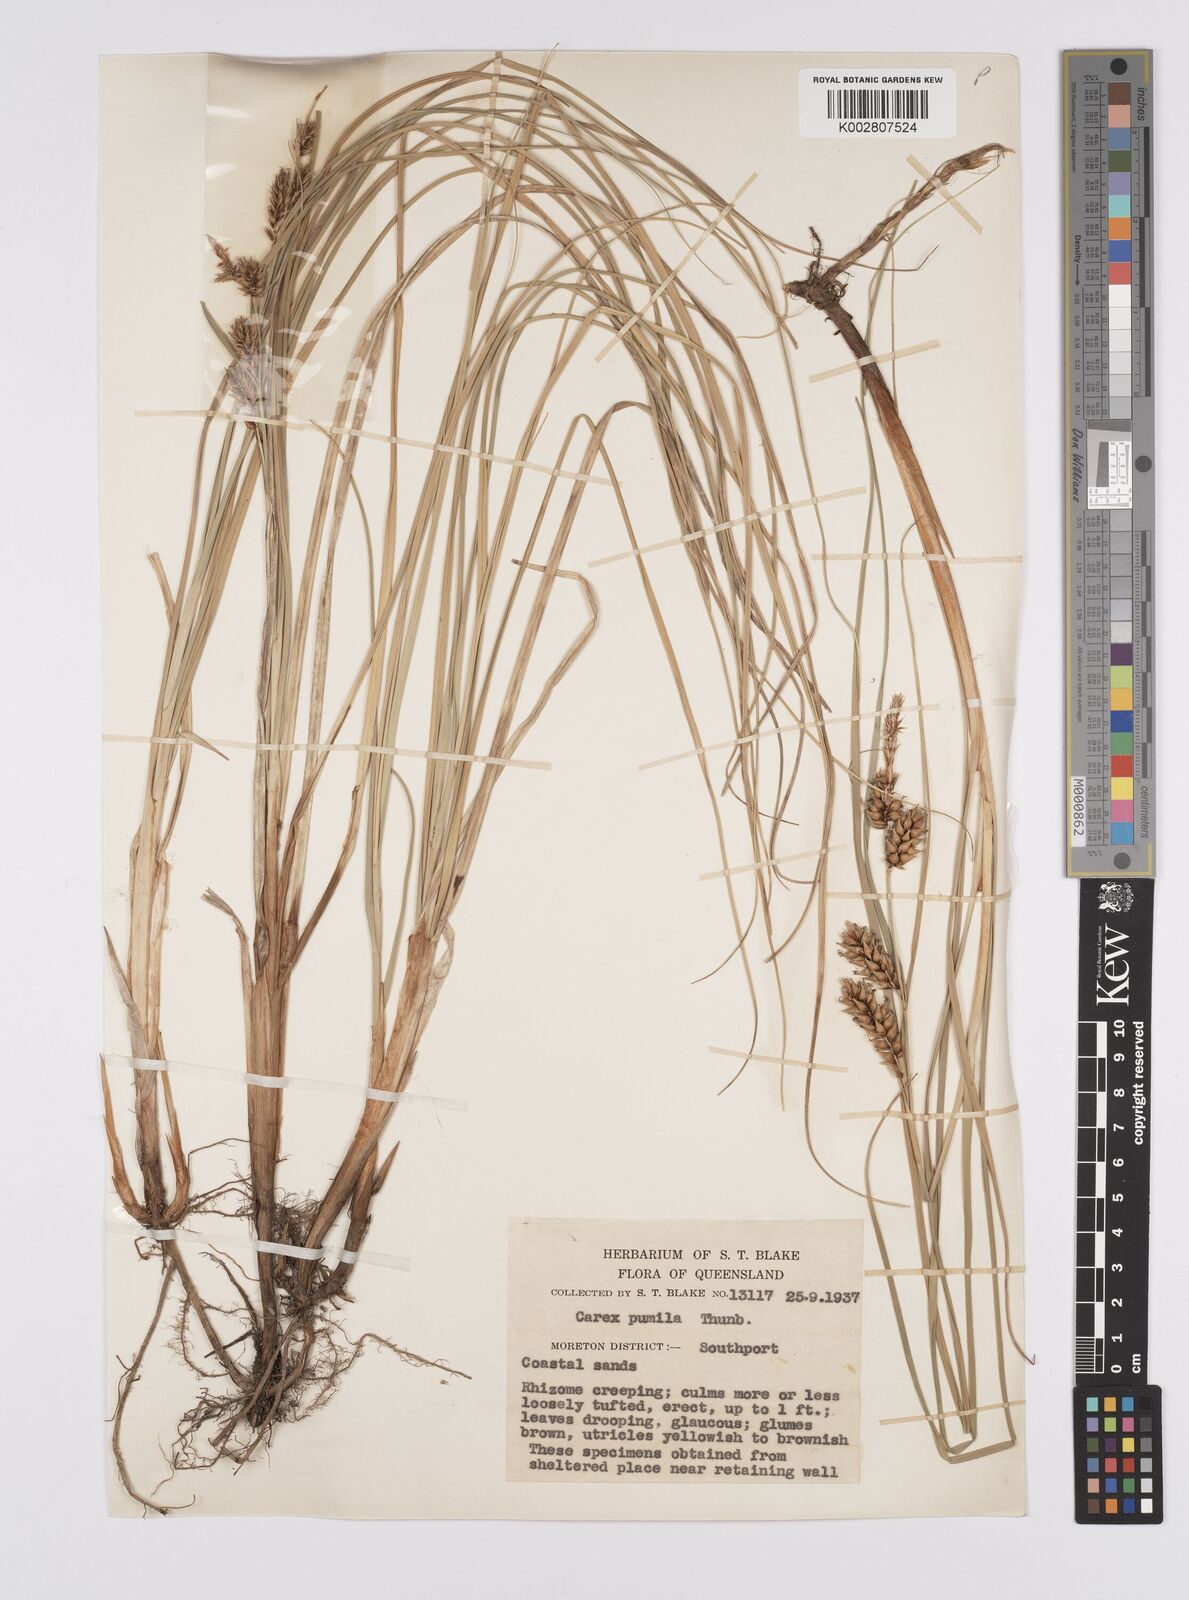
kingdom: Plantae
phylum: Tracheophyta
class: Liliopsida
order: Poales
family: Cyperaceae
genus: Carex
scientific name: Carex pumila
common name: Dwarf sedge
